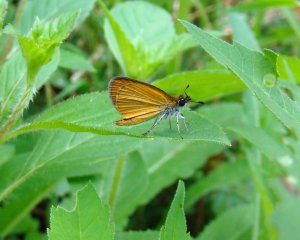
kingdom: Animalia
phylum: Arthropoda
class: Insecta
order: Lepidoptera
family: Hesperiidae
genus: Ancyloxypha
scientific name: Ancyloxypha numitor
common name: Least Skipper
